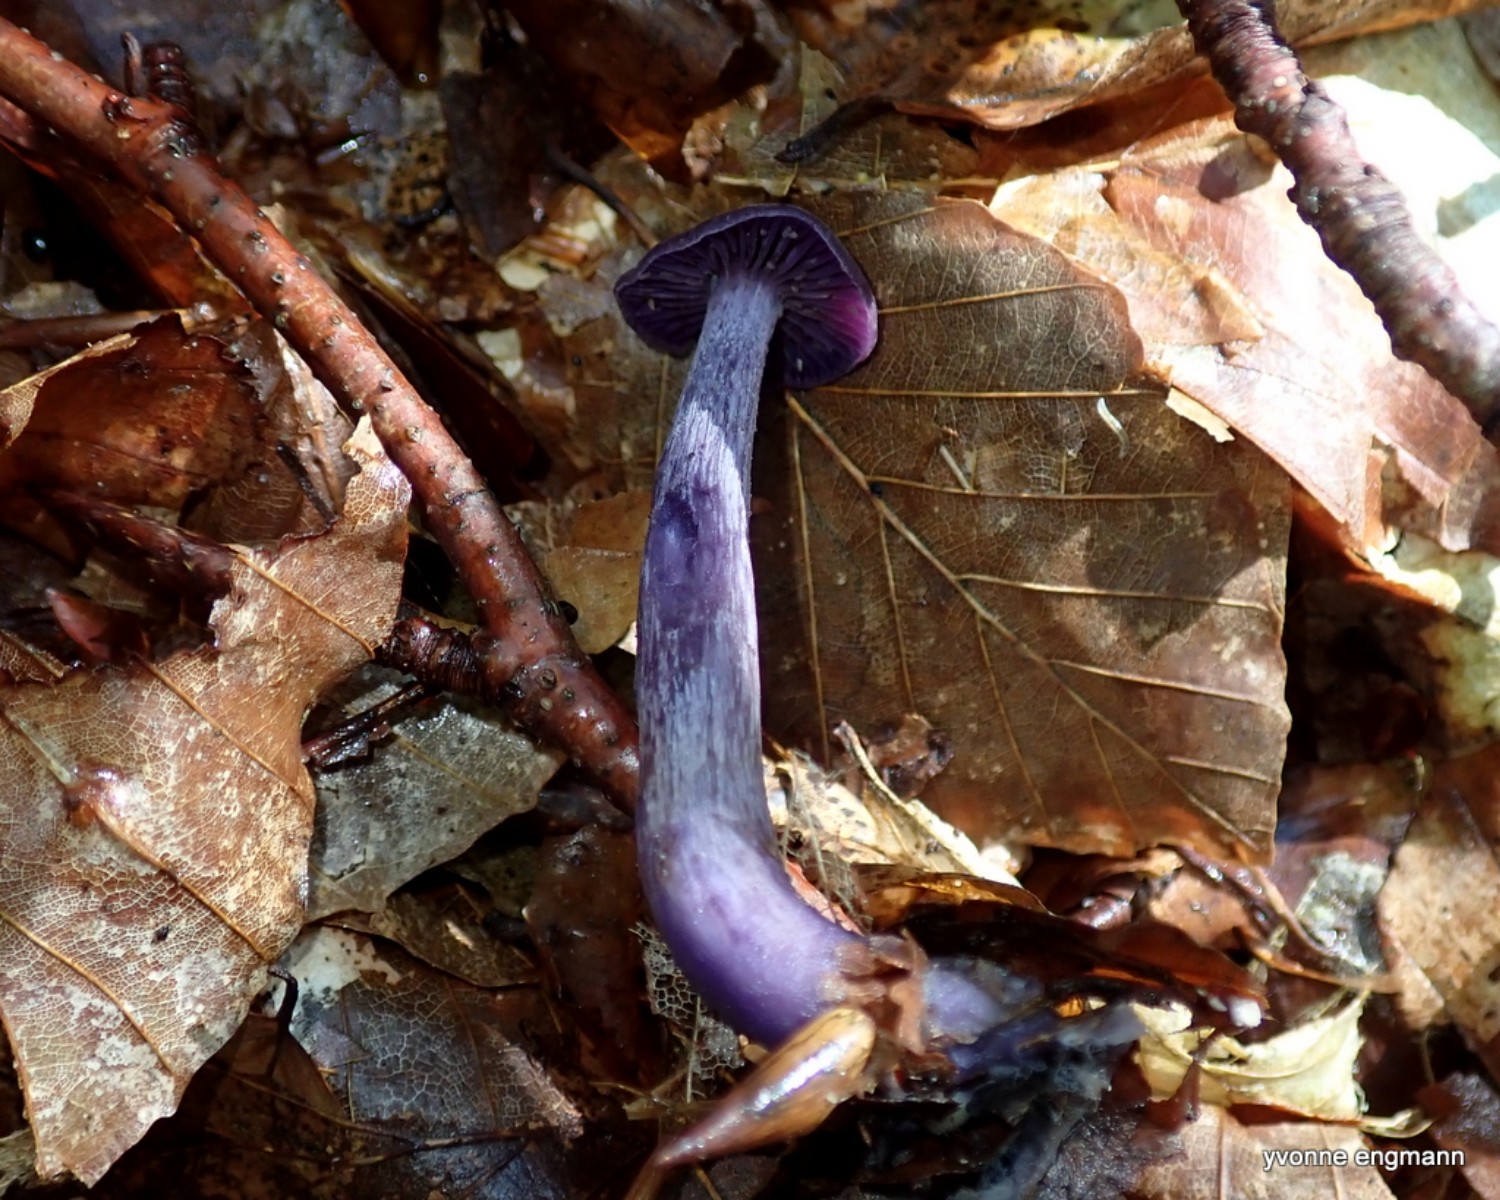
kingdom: Fungi
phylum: Basidiomycota
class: Agaricomycetes
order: Agaricales
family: Hydnangiaceae
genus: Laccaria
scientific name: Laccaria amethystina
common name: violet ametysthat
